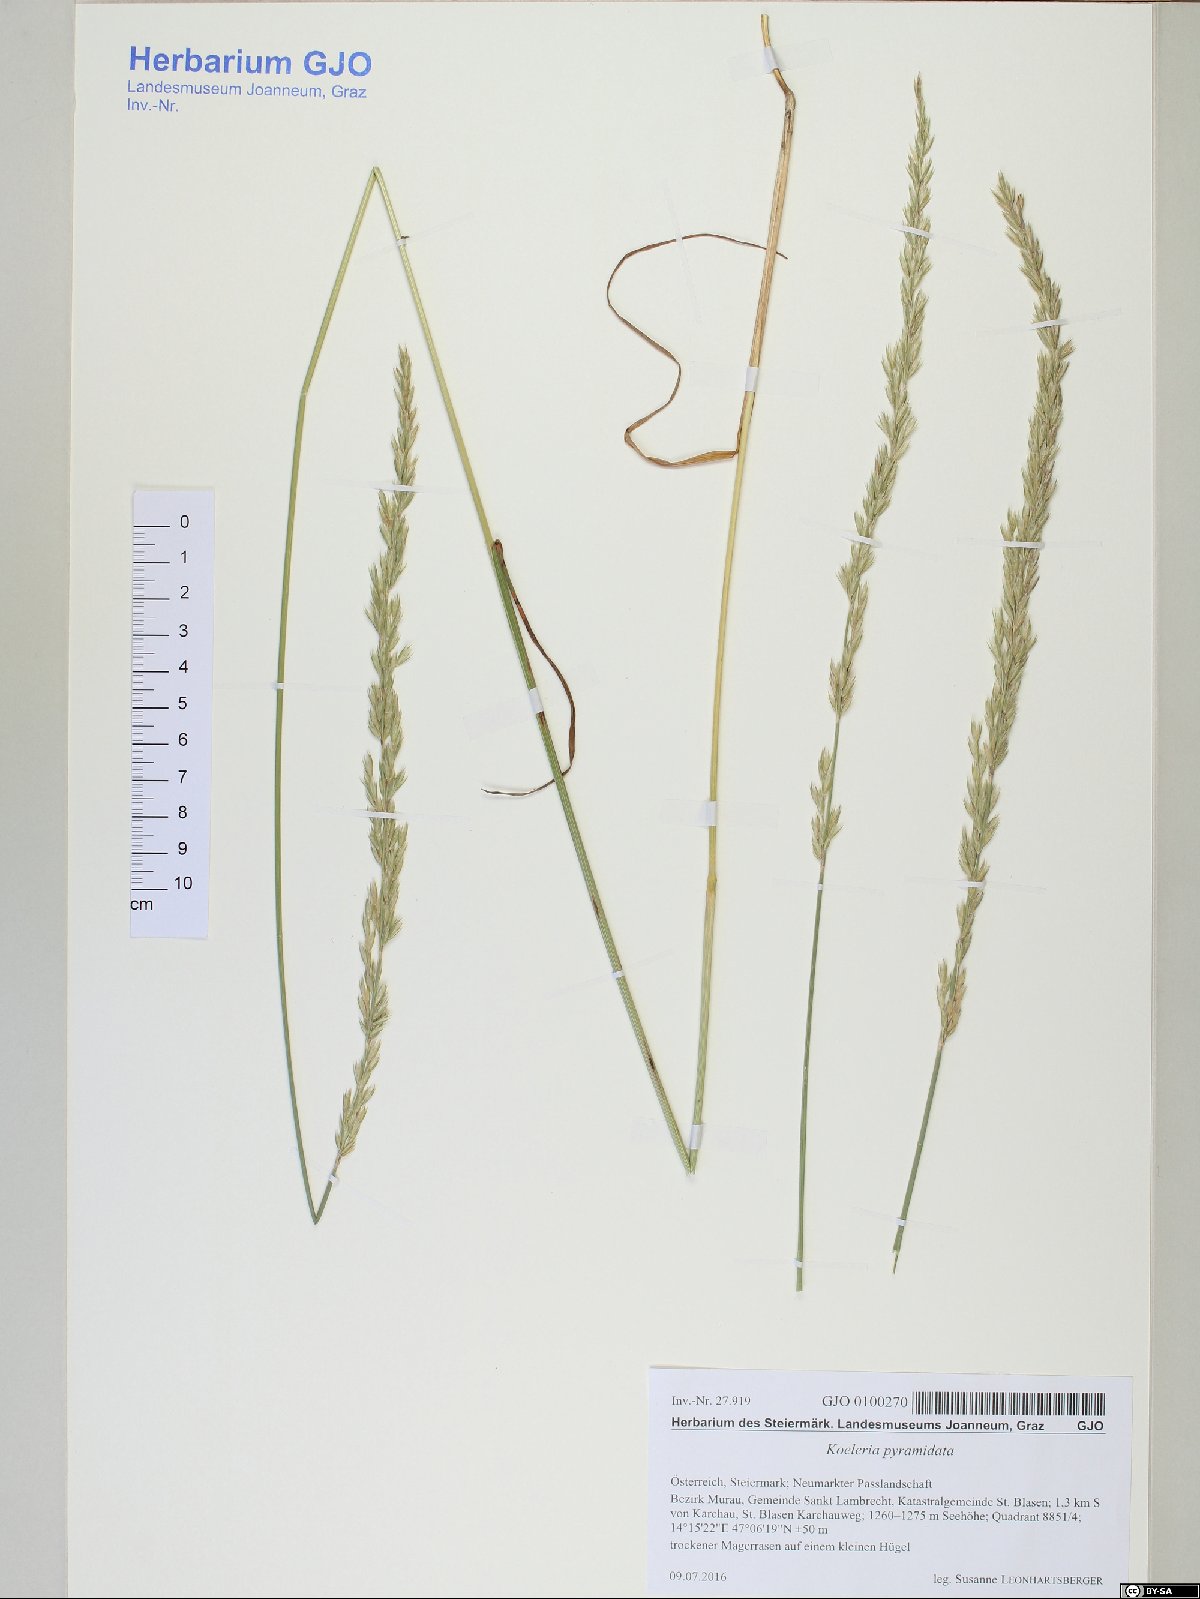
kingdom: Plantae
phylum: Tracheophyta
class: Liliopsida
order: Poales
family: Poaceae
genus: Koeleria
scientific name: Koeleria pyramidata
